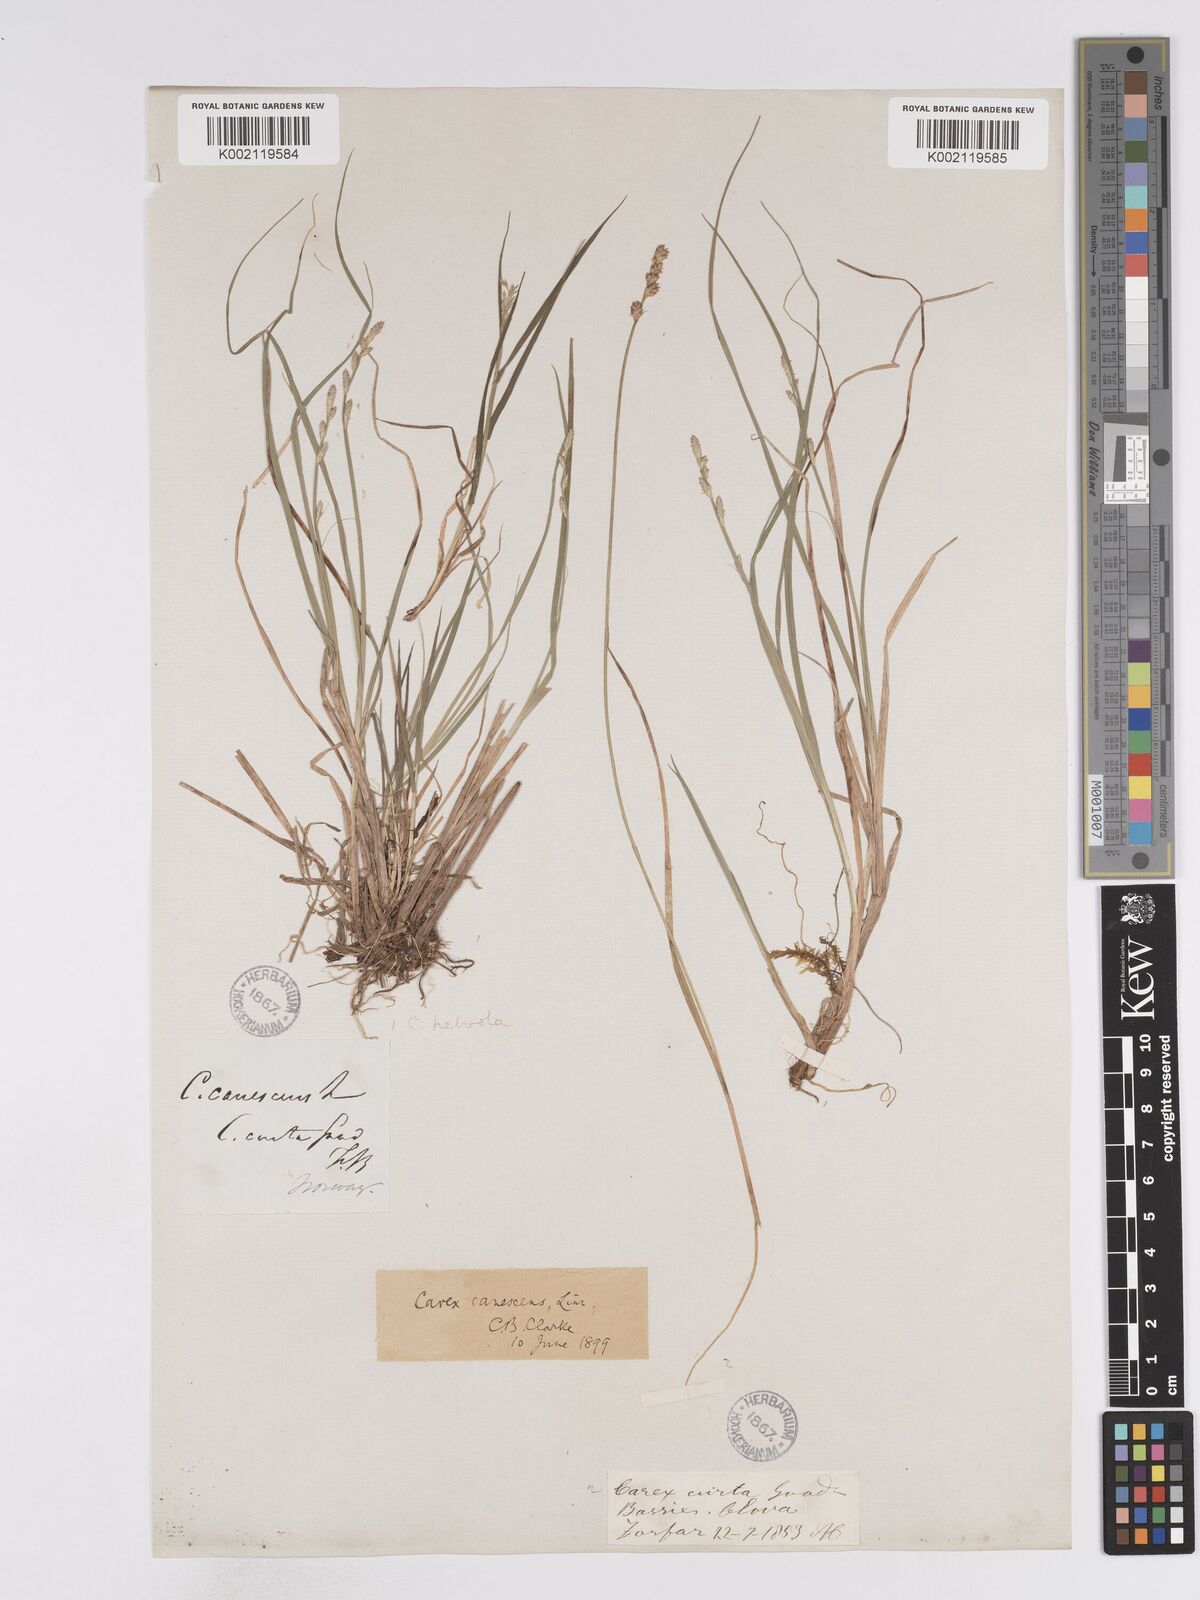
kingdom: Plantae
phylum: Tracheophyta
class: Liliopsida
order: Poales
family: Cyperaceae
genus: Carex
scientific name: Carex curta
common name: White sedge
